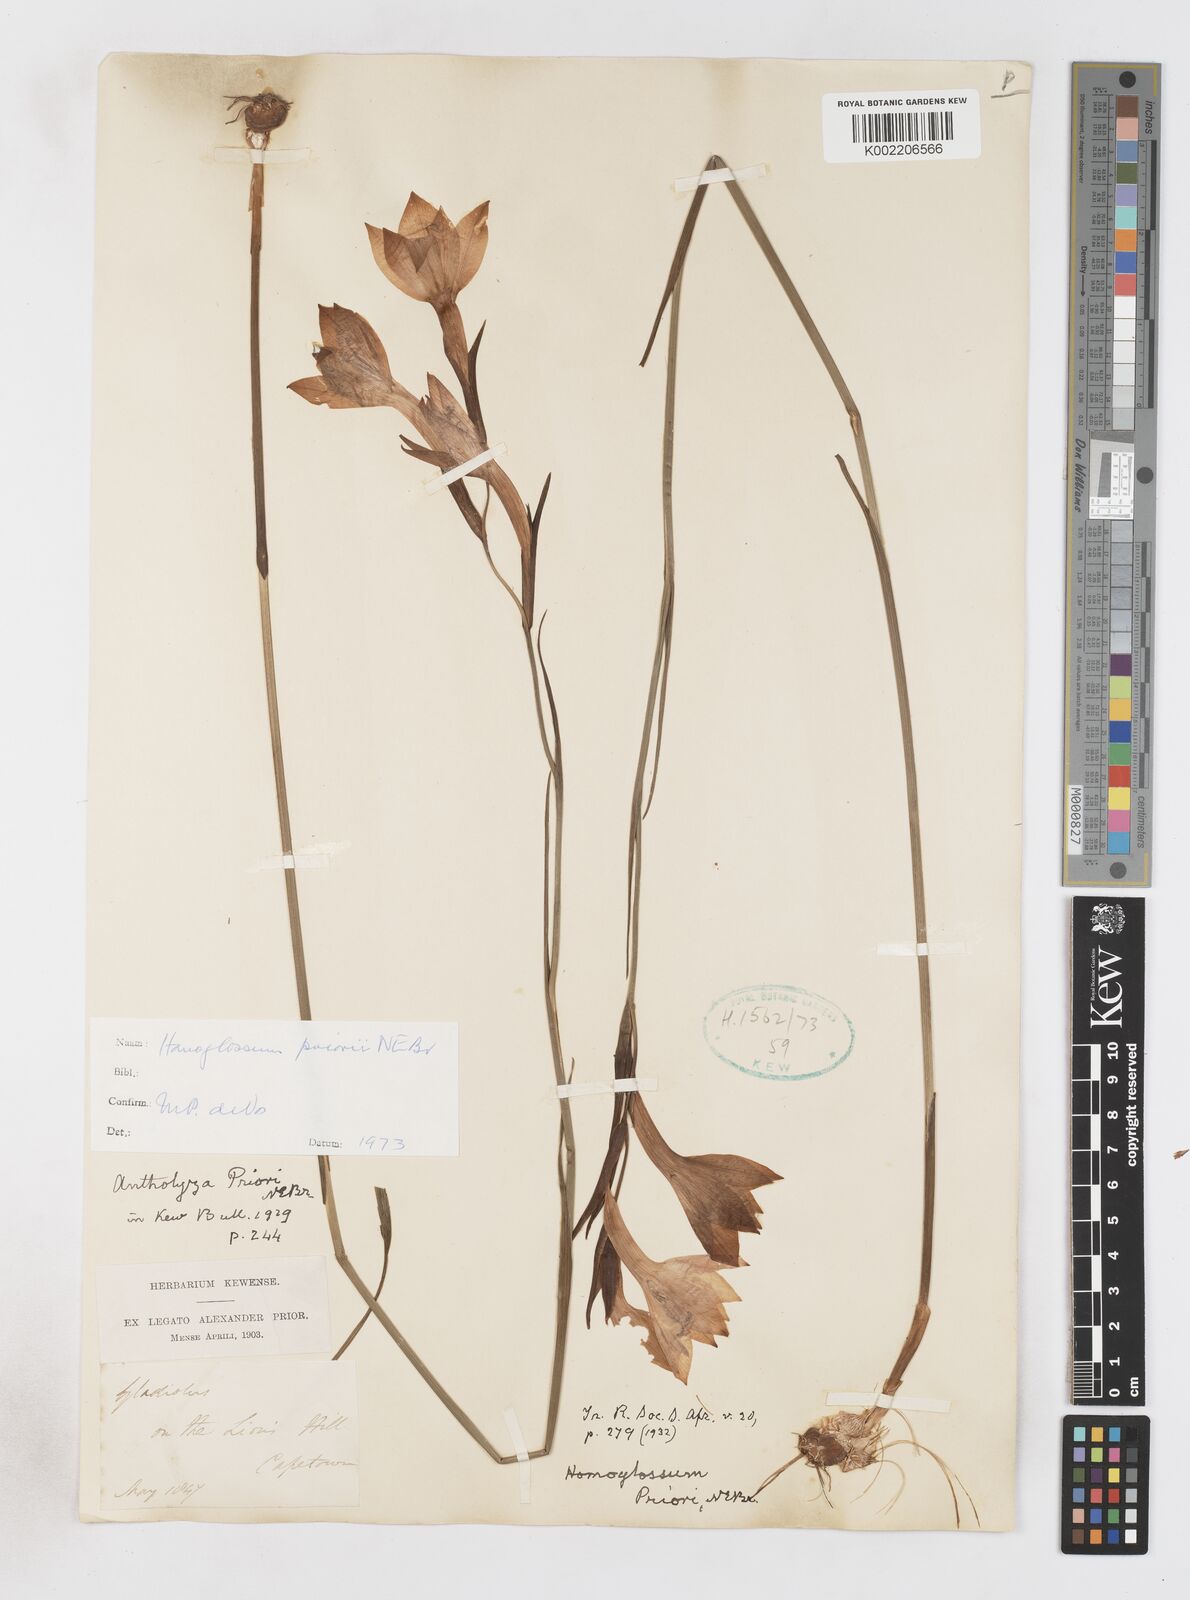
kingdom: Plantae
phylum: Tracheophyta
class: Liliopsida
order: Asparagales
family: Iridaceae
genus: Gladiolus
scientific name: Gladiolus priorii
